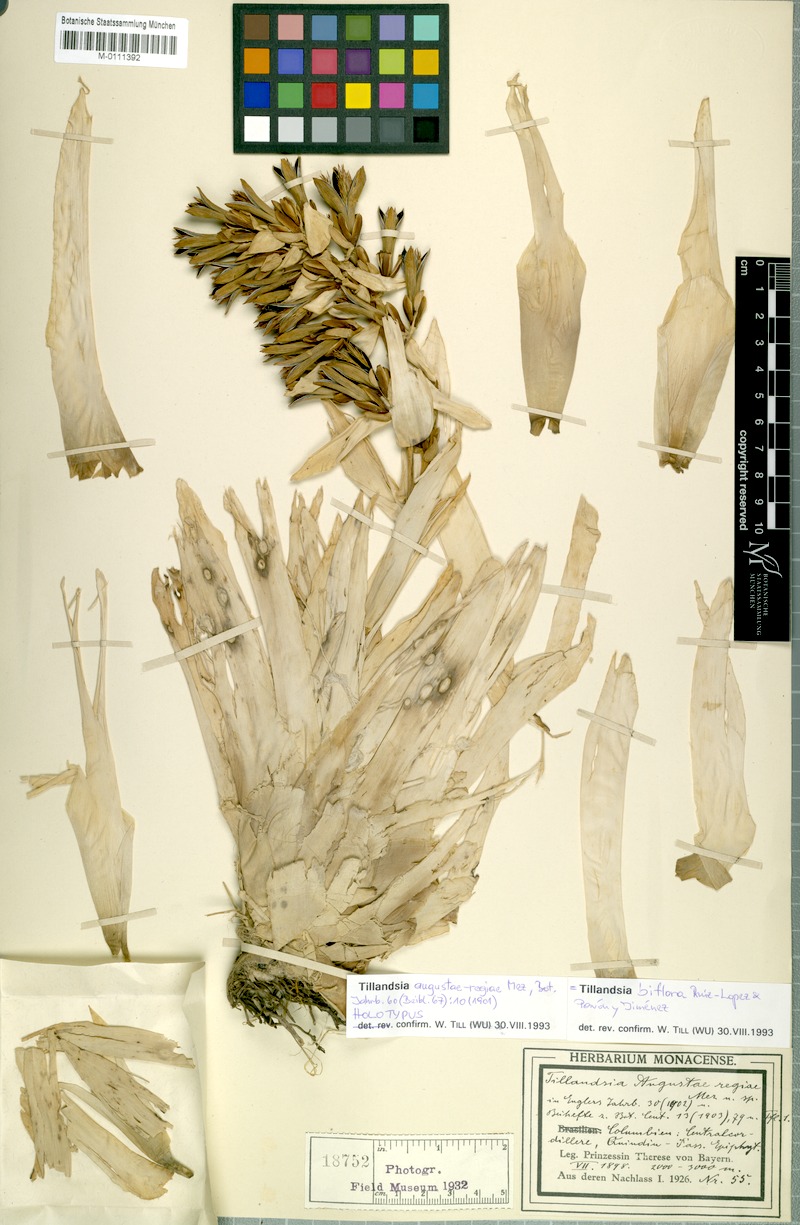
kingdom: Plantae
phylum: Tracheophyta
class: Liliopsida
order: Poales
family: Bromeliaceae
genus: Tillandsia
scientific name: Tillandsia biflora
